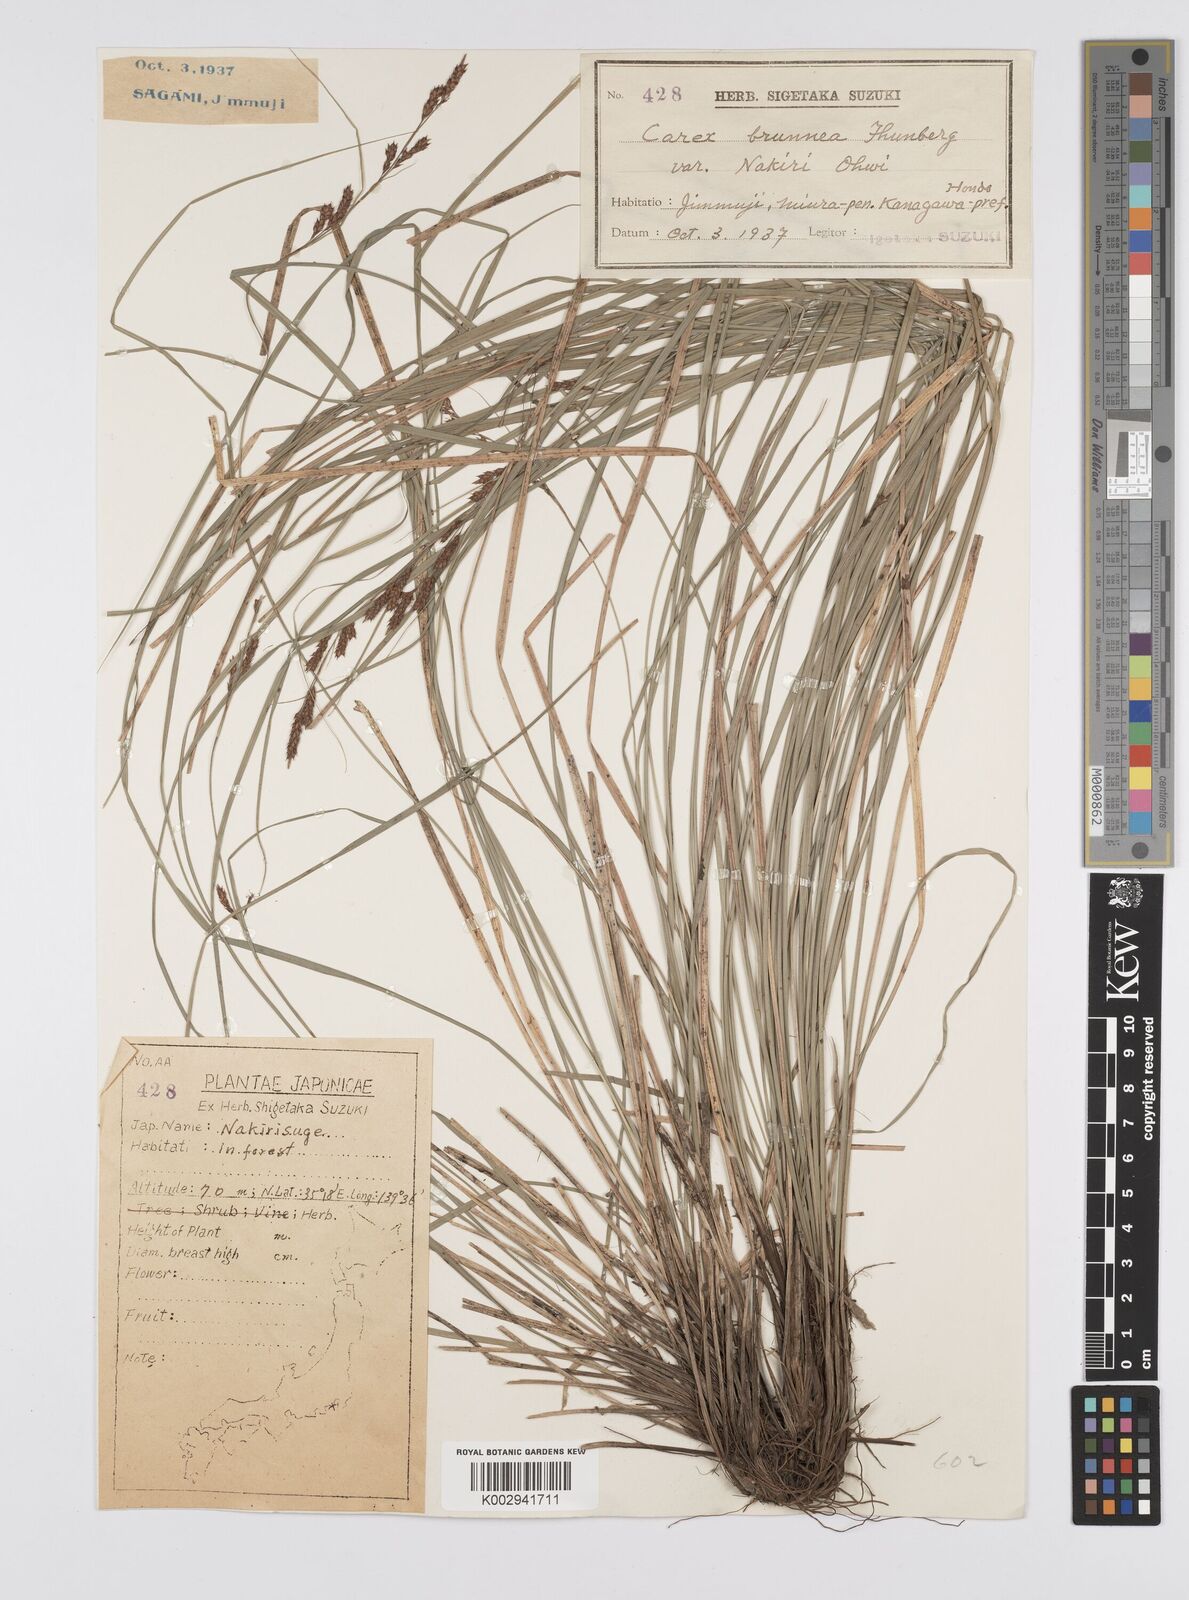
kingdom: Plantae
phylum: Tracheophyta
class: Liliopsida
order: Poales
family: Cyperaceae
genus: Carex
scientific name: Carex brunnea
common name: Greater brown sedge
